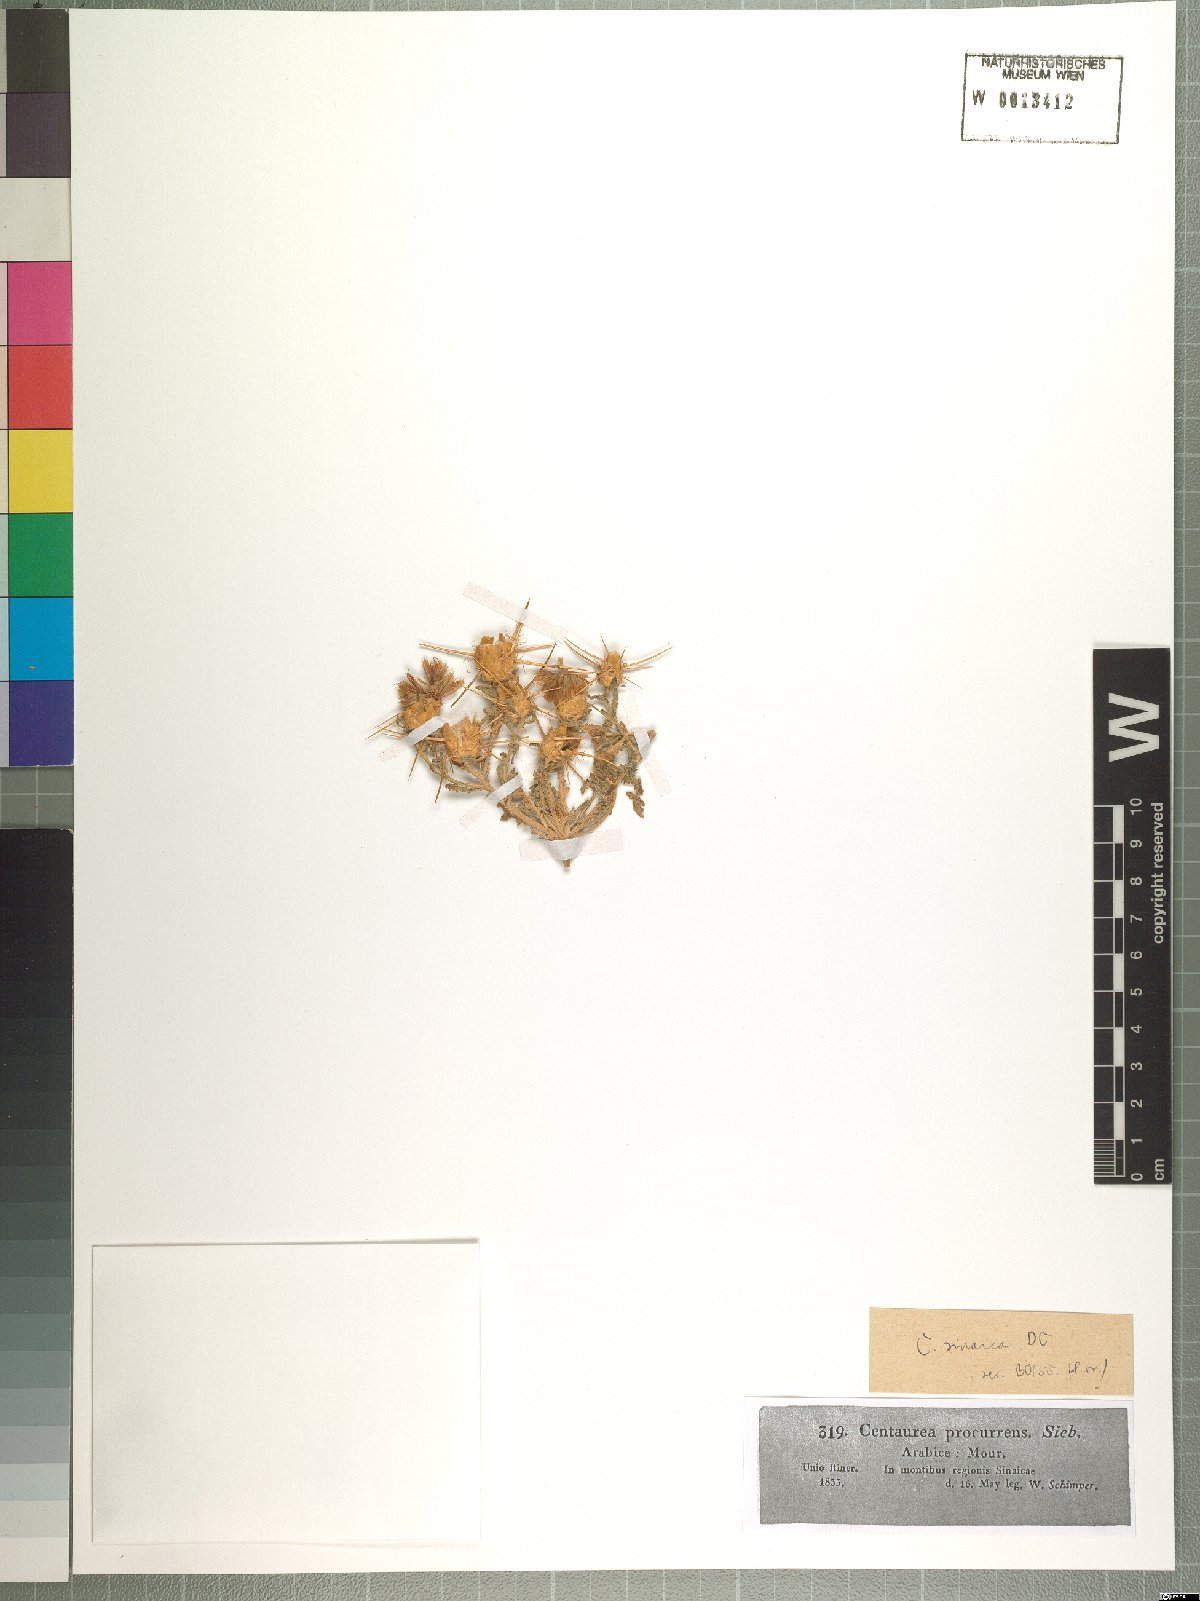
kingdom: Plantae
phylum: Tracheophyta
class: Magnoliopsida
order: Asterales
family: Asteraceae
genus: Centaurea
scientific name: Centaurea sinaica
